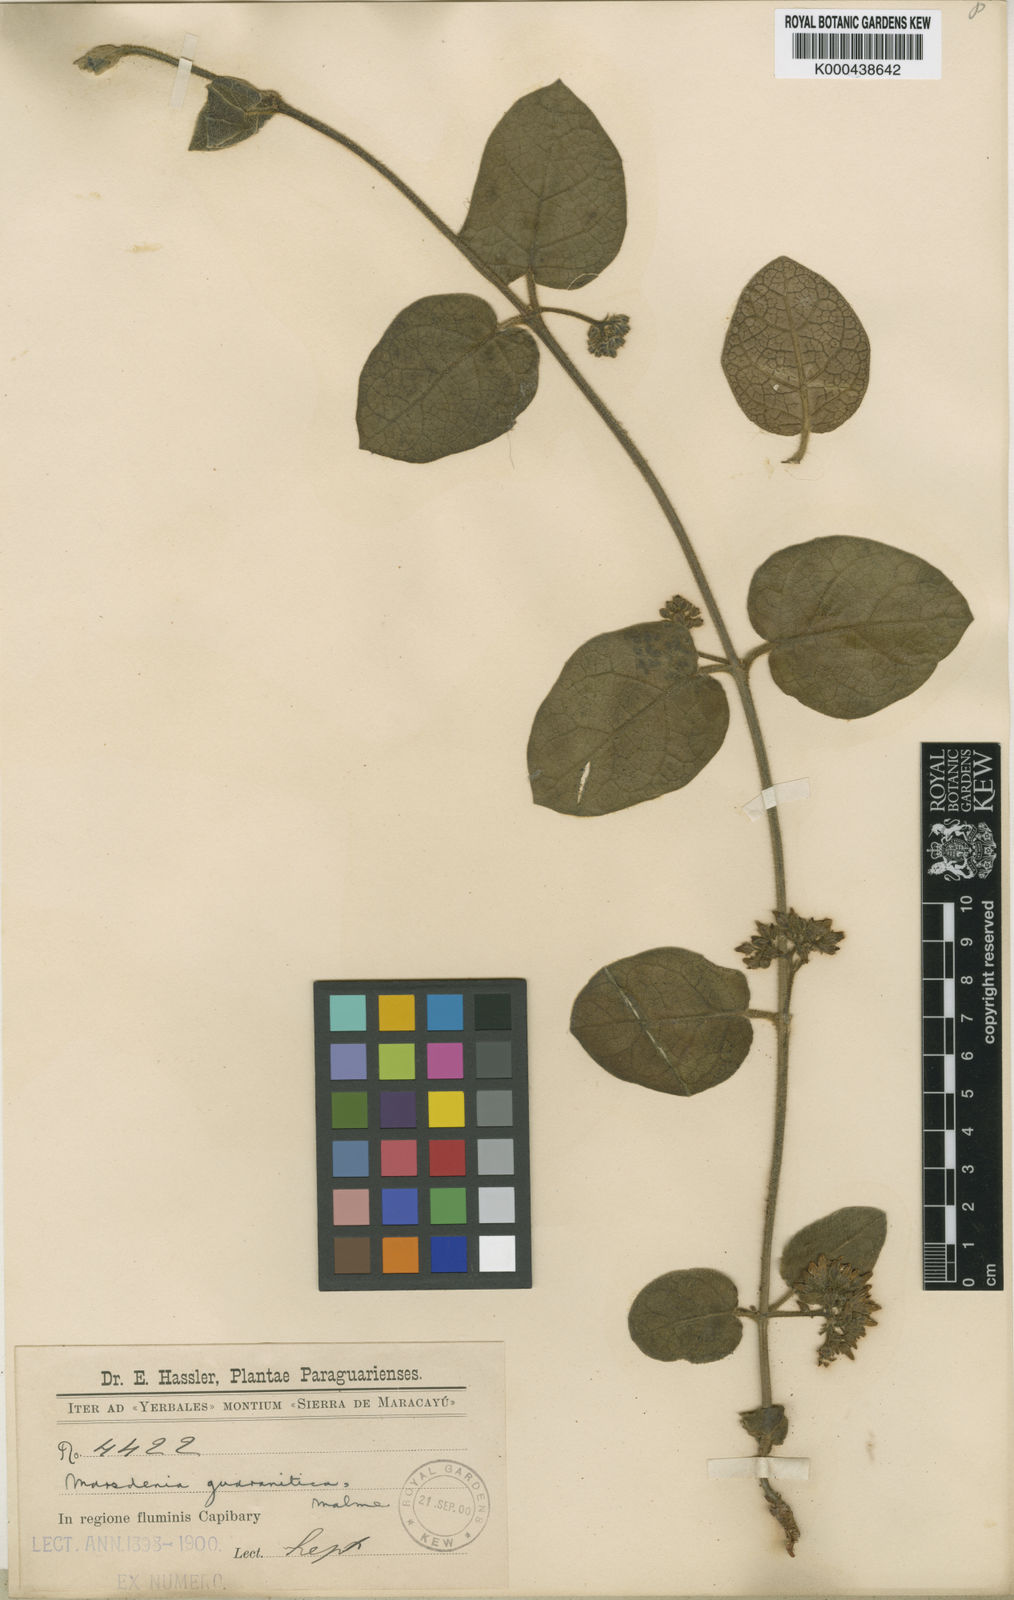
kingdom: Plantae
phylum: Tracheophyta
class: Magnoliopsida
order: Gentianales
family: Apocynaceae
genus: Ruehssia
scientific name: Ruehssia guaranitica
